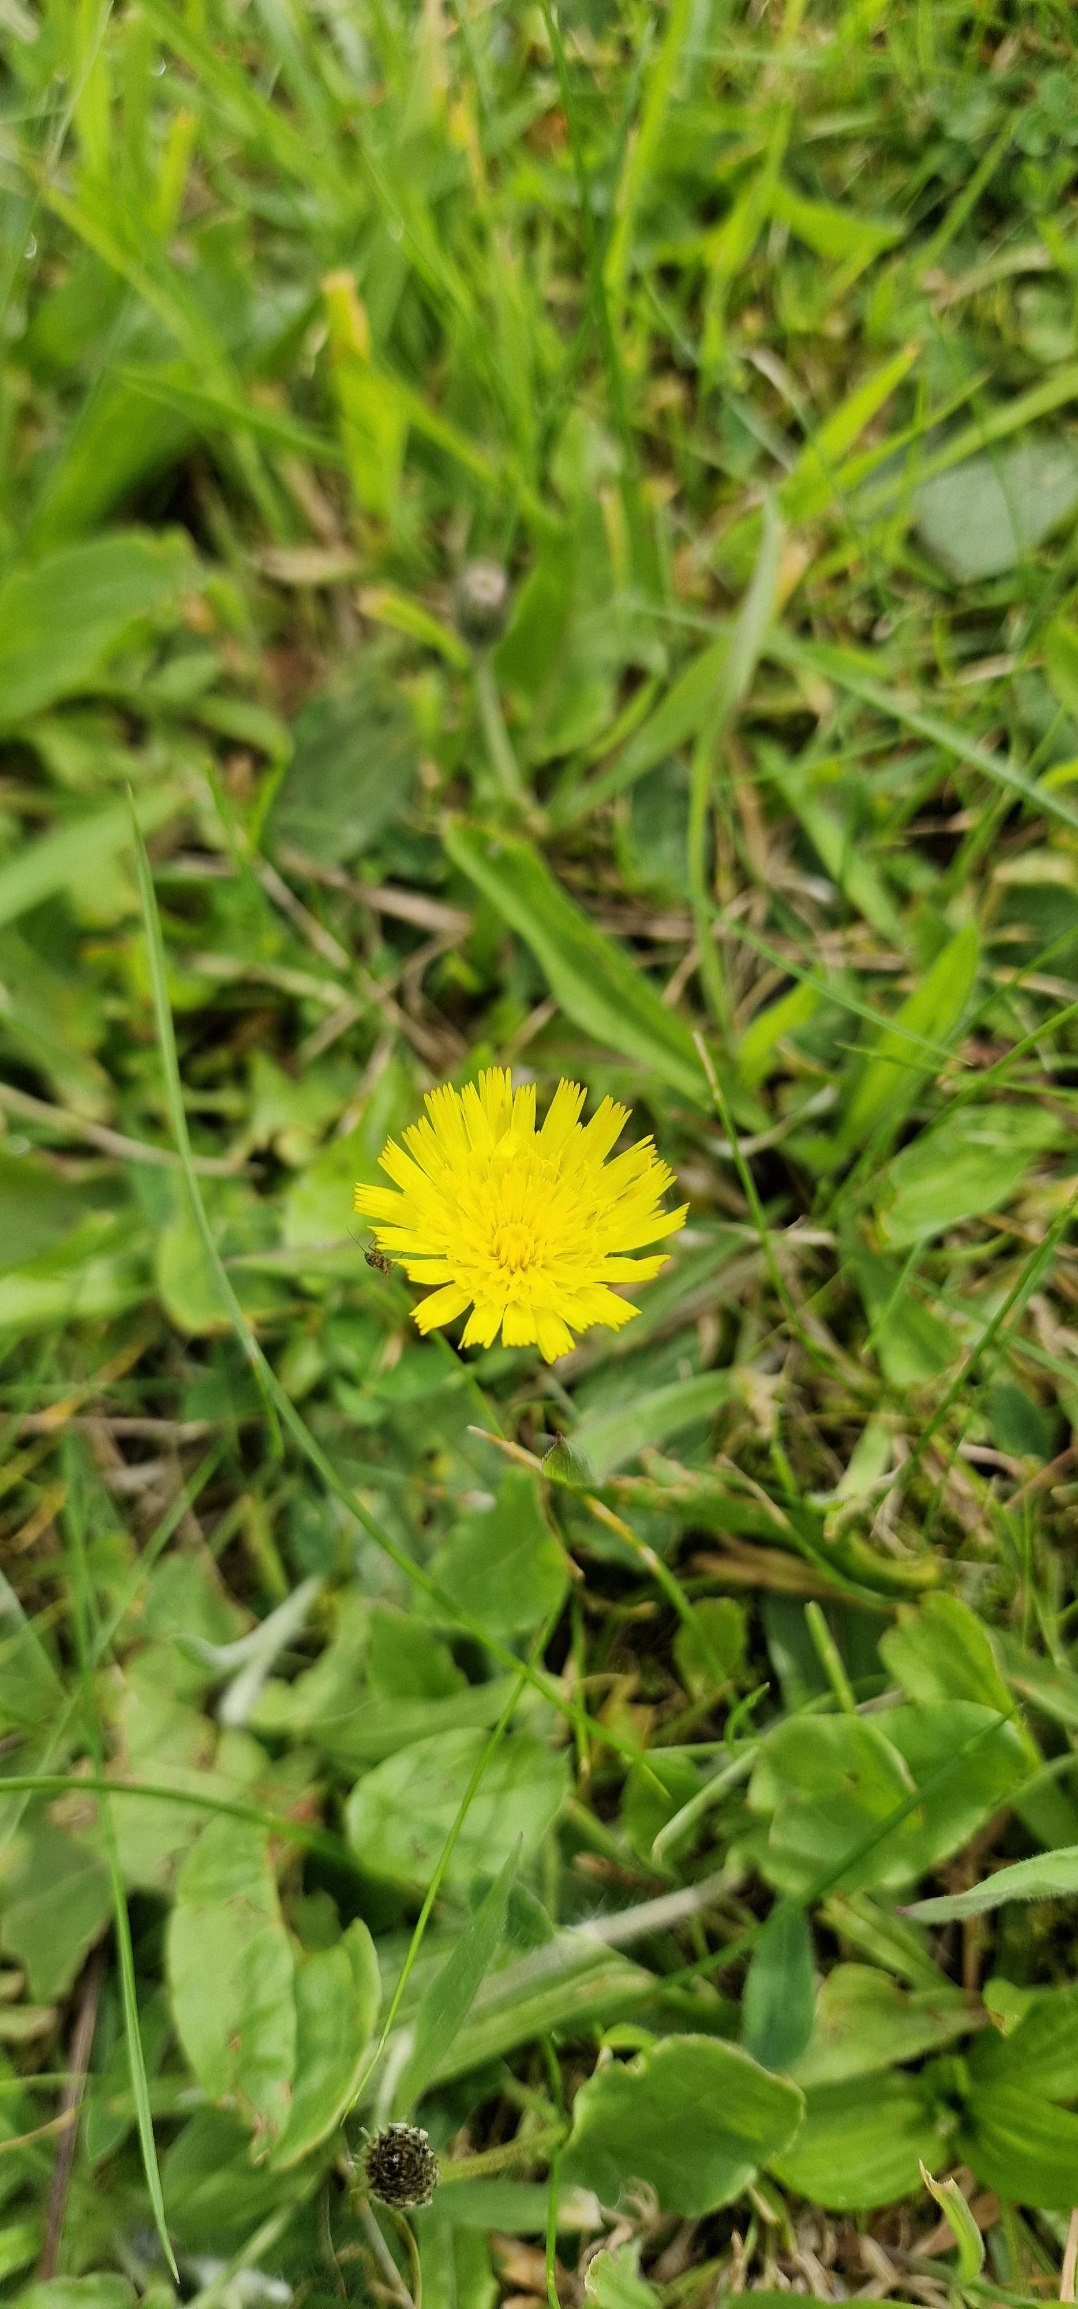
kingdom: Plantae
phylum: Tracheophyta
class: Magnoliopsida
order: Asterales
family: Asteraceae
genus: Pilosella
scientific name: Pilosella officinarum
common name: Håret høgeurt
